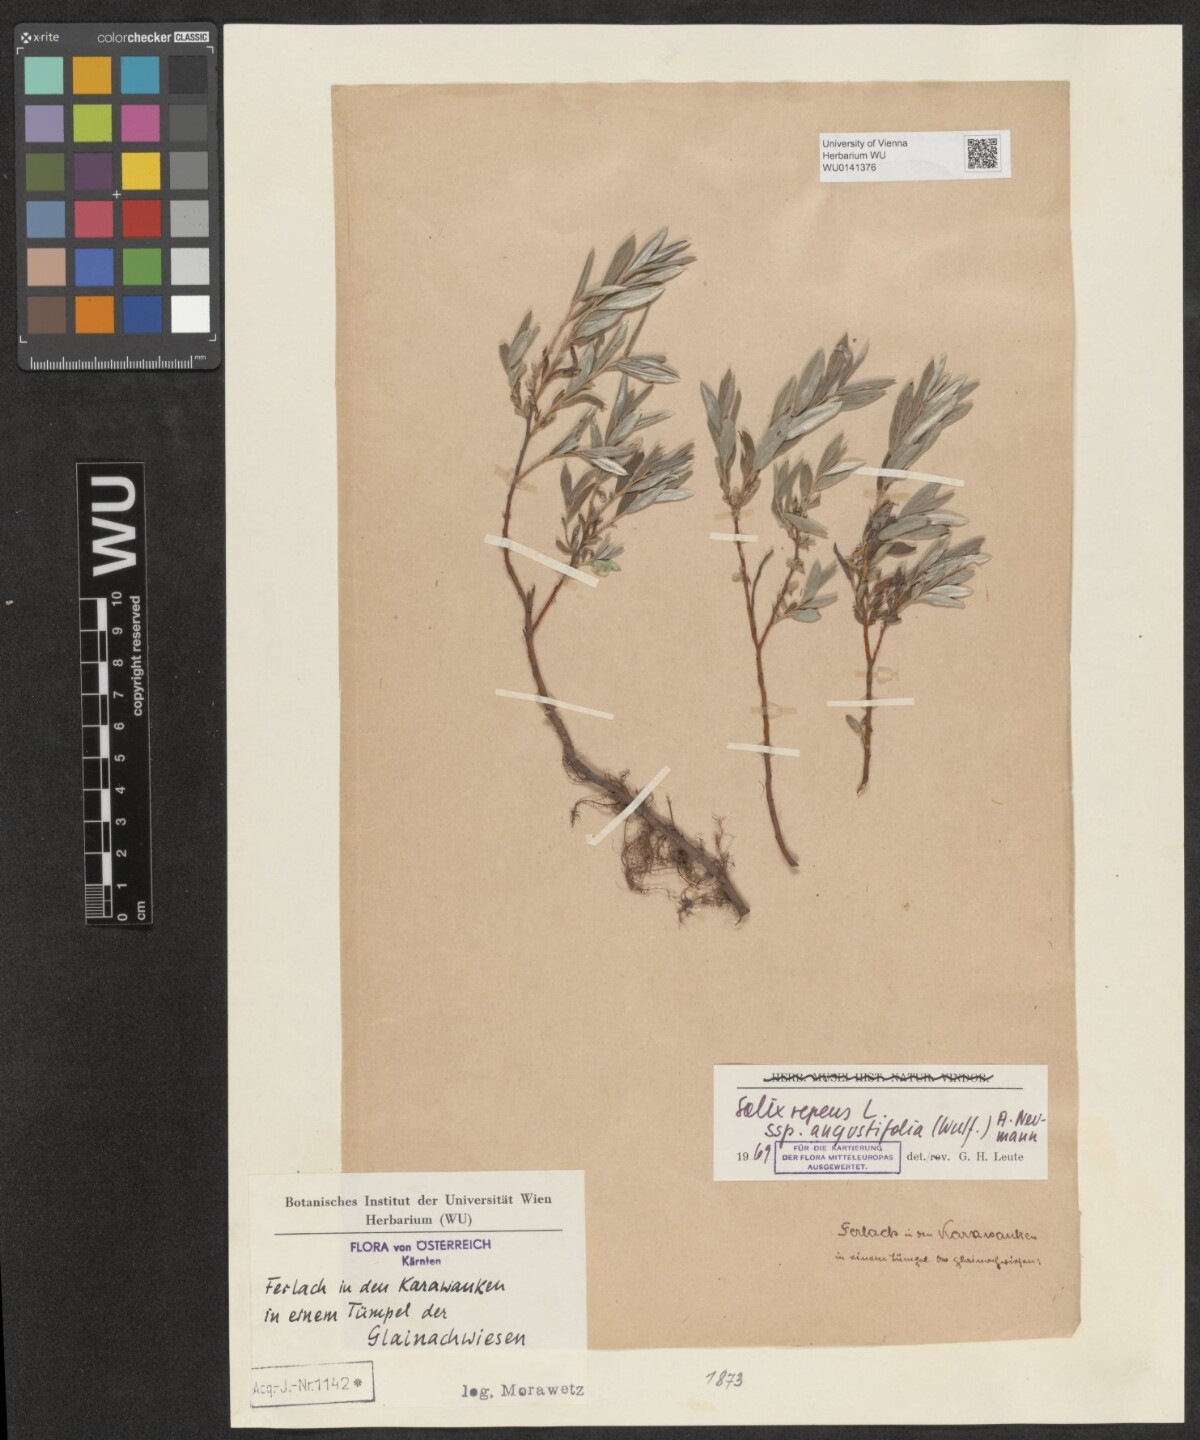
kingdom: Plantae
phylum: Tracheophyta
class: Magnoliopsida
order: Malpighiales
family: Salicaceae
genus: Salix
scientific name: Salix repens
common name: Creeping willow
